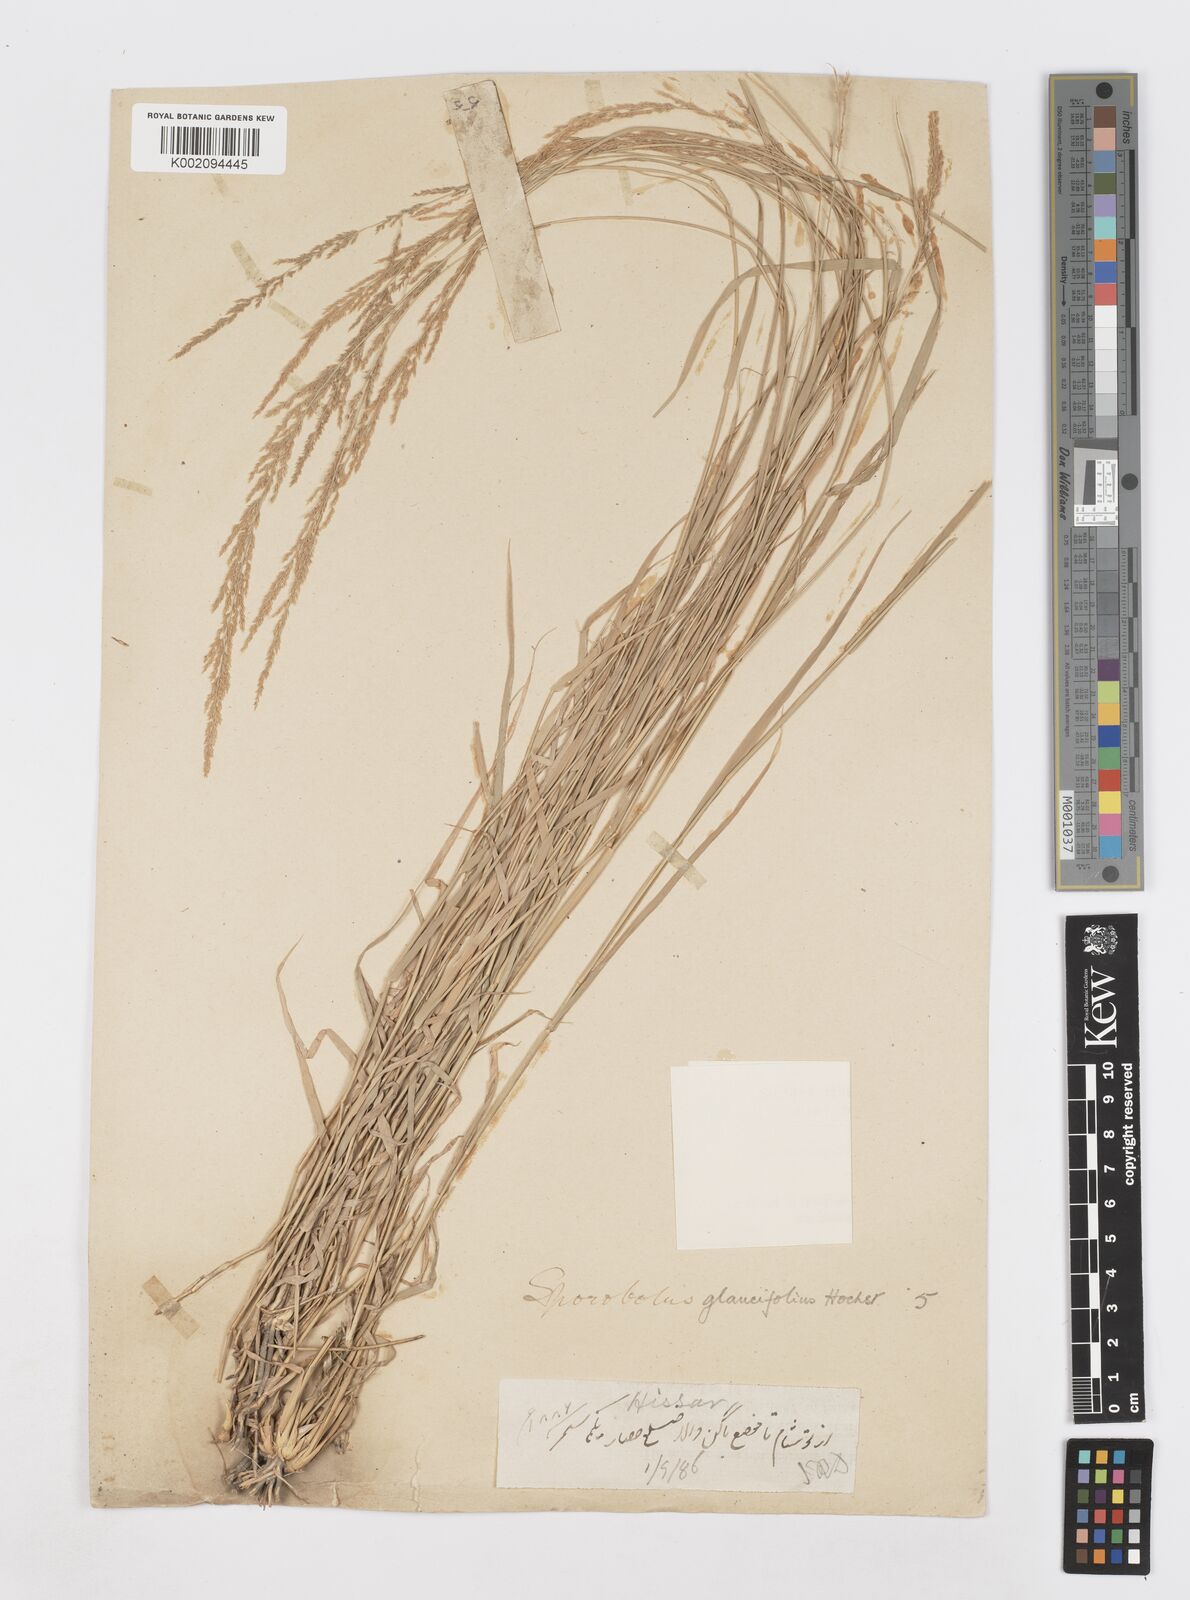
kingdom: Plantae
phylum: Tracheophyta
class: Liliopsida
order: Poales
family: Poaceae
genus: Sporobolus
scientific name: Sporobolus helvolus
